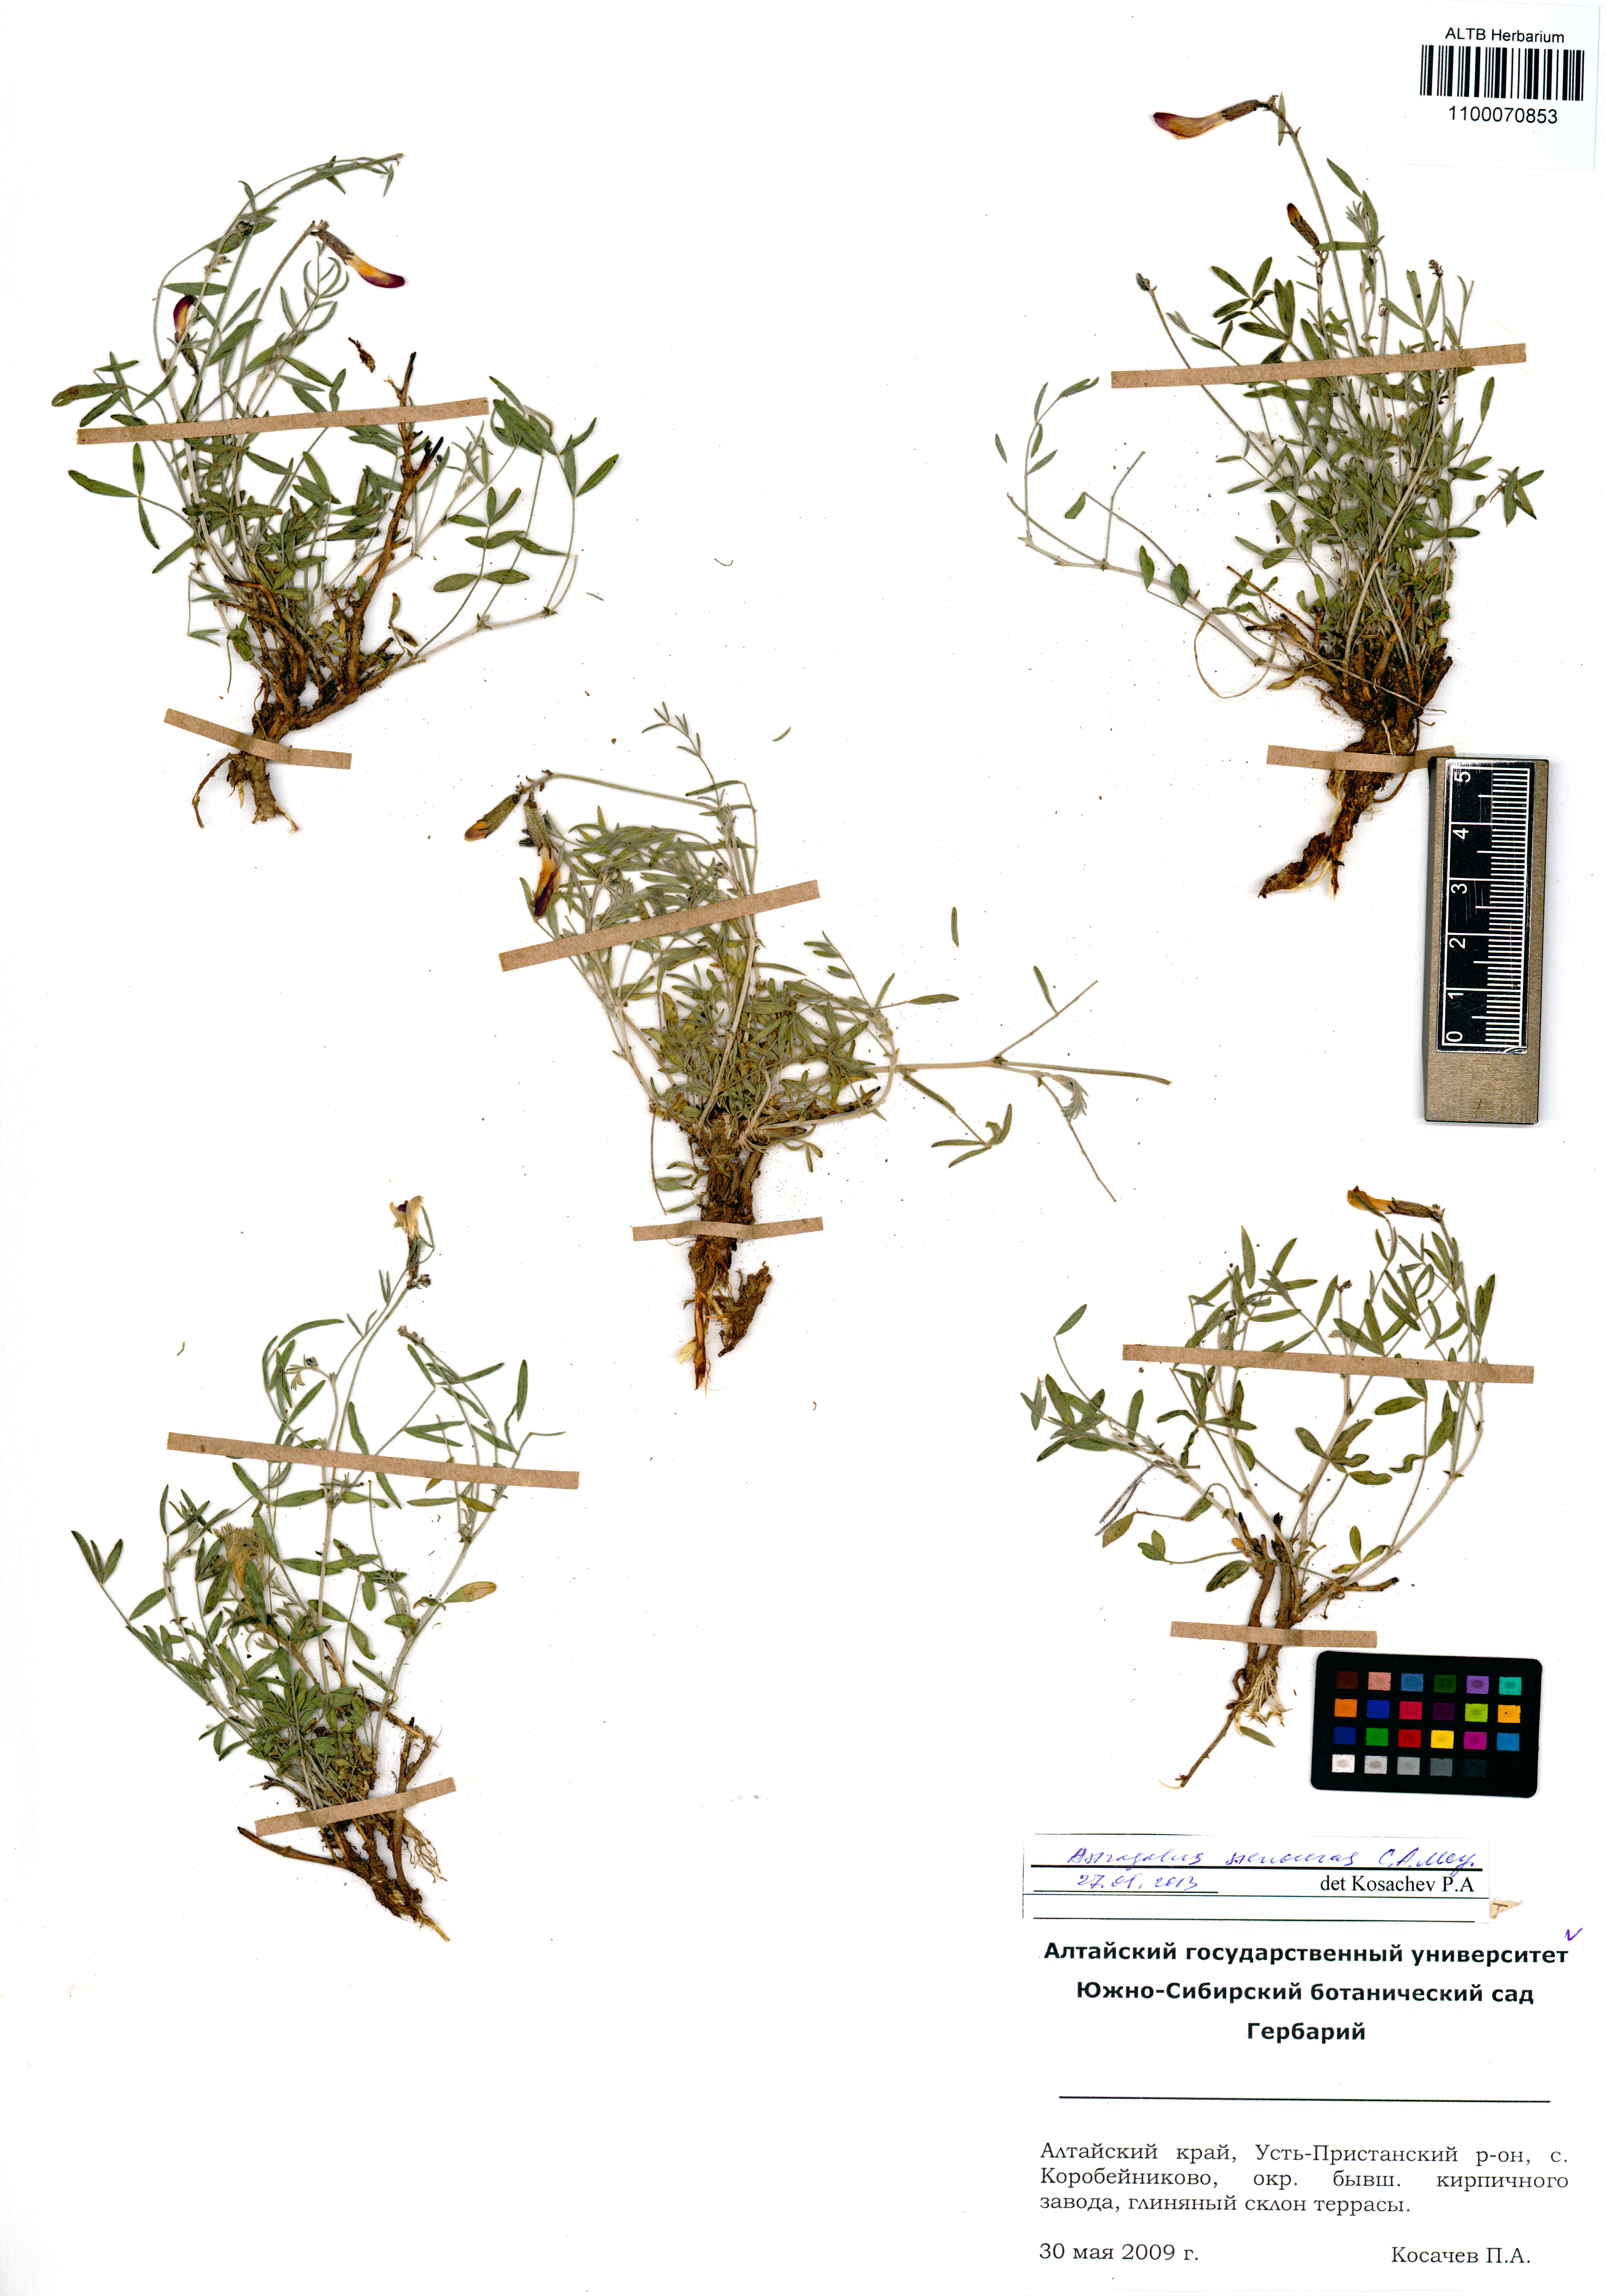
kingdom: Plantae
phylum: Tracheophyta
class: Magnoliopsida
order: Fabales
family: Fabaceae
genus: Astragalus
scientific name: Astragalus stenoceras
